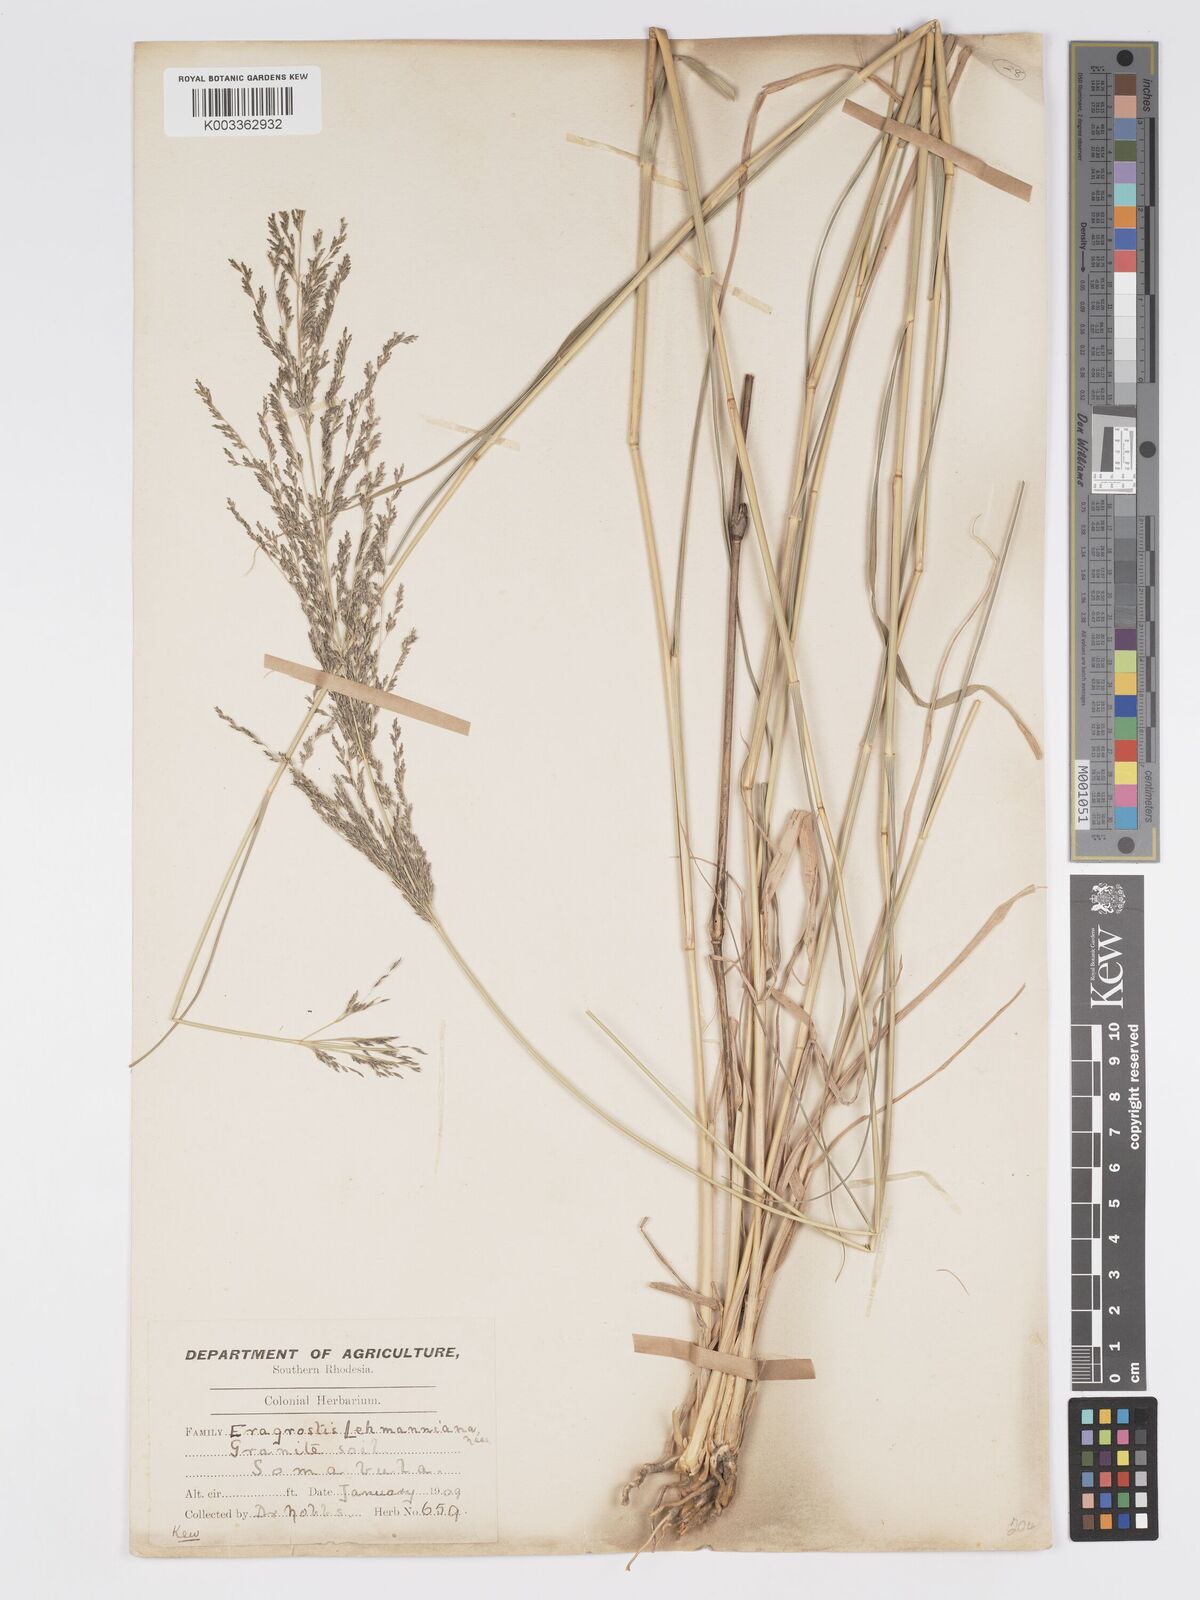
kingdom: Plantae
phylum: Tracheophyta
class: Liliopsida
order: Poales
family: Poaceae
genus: Eragrostis
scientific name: Eragrostis cylindriflora
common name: Cylinderflower lovegrass
